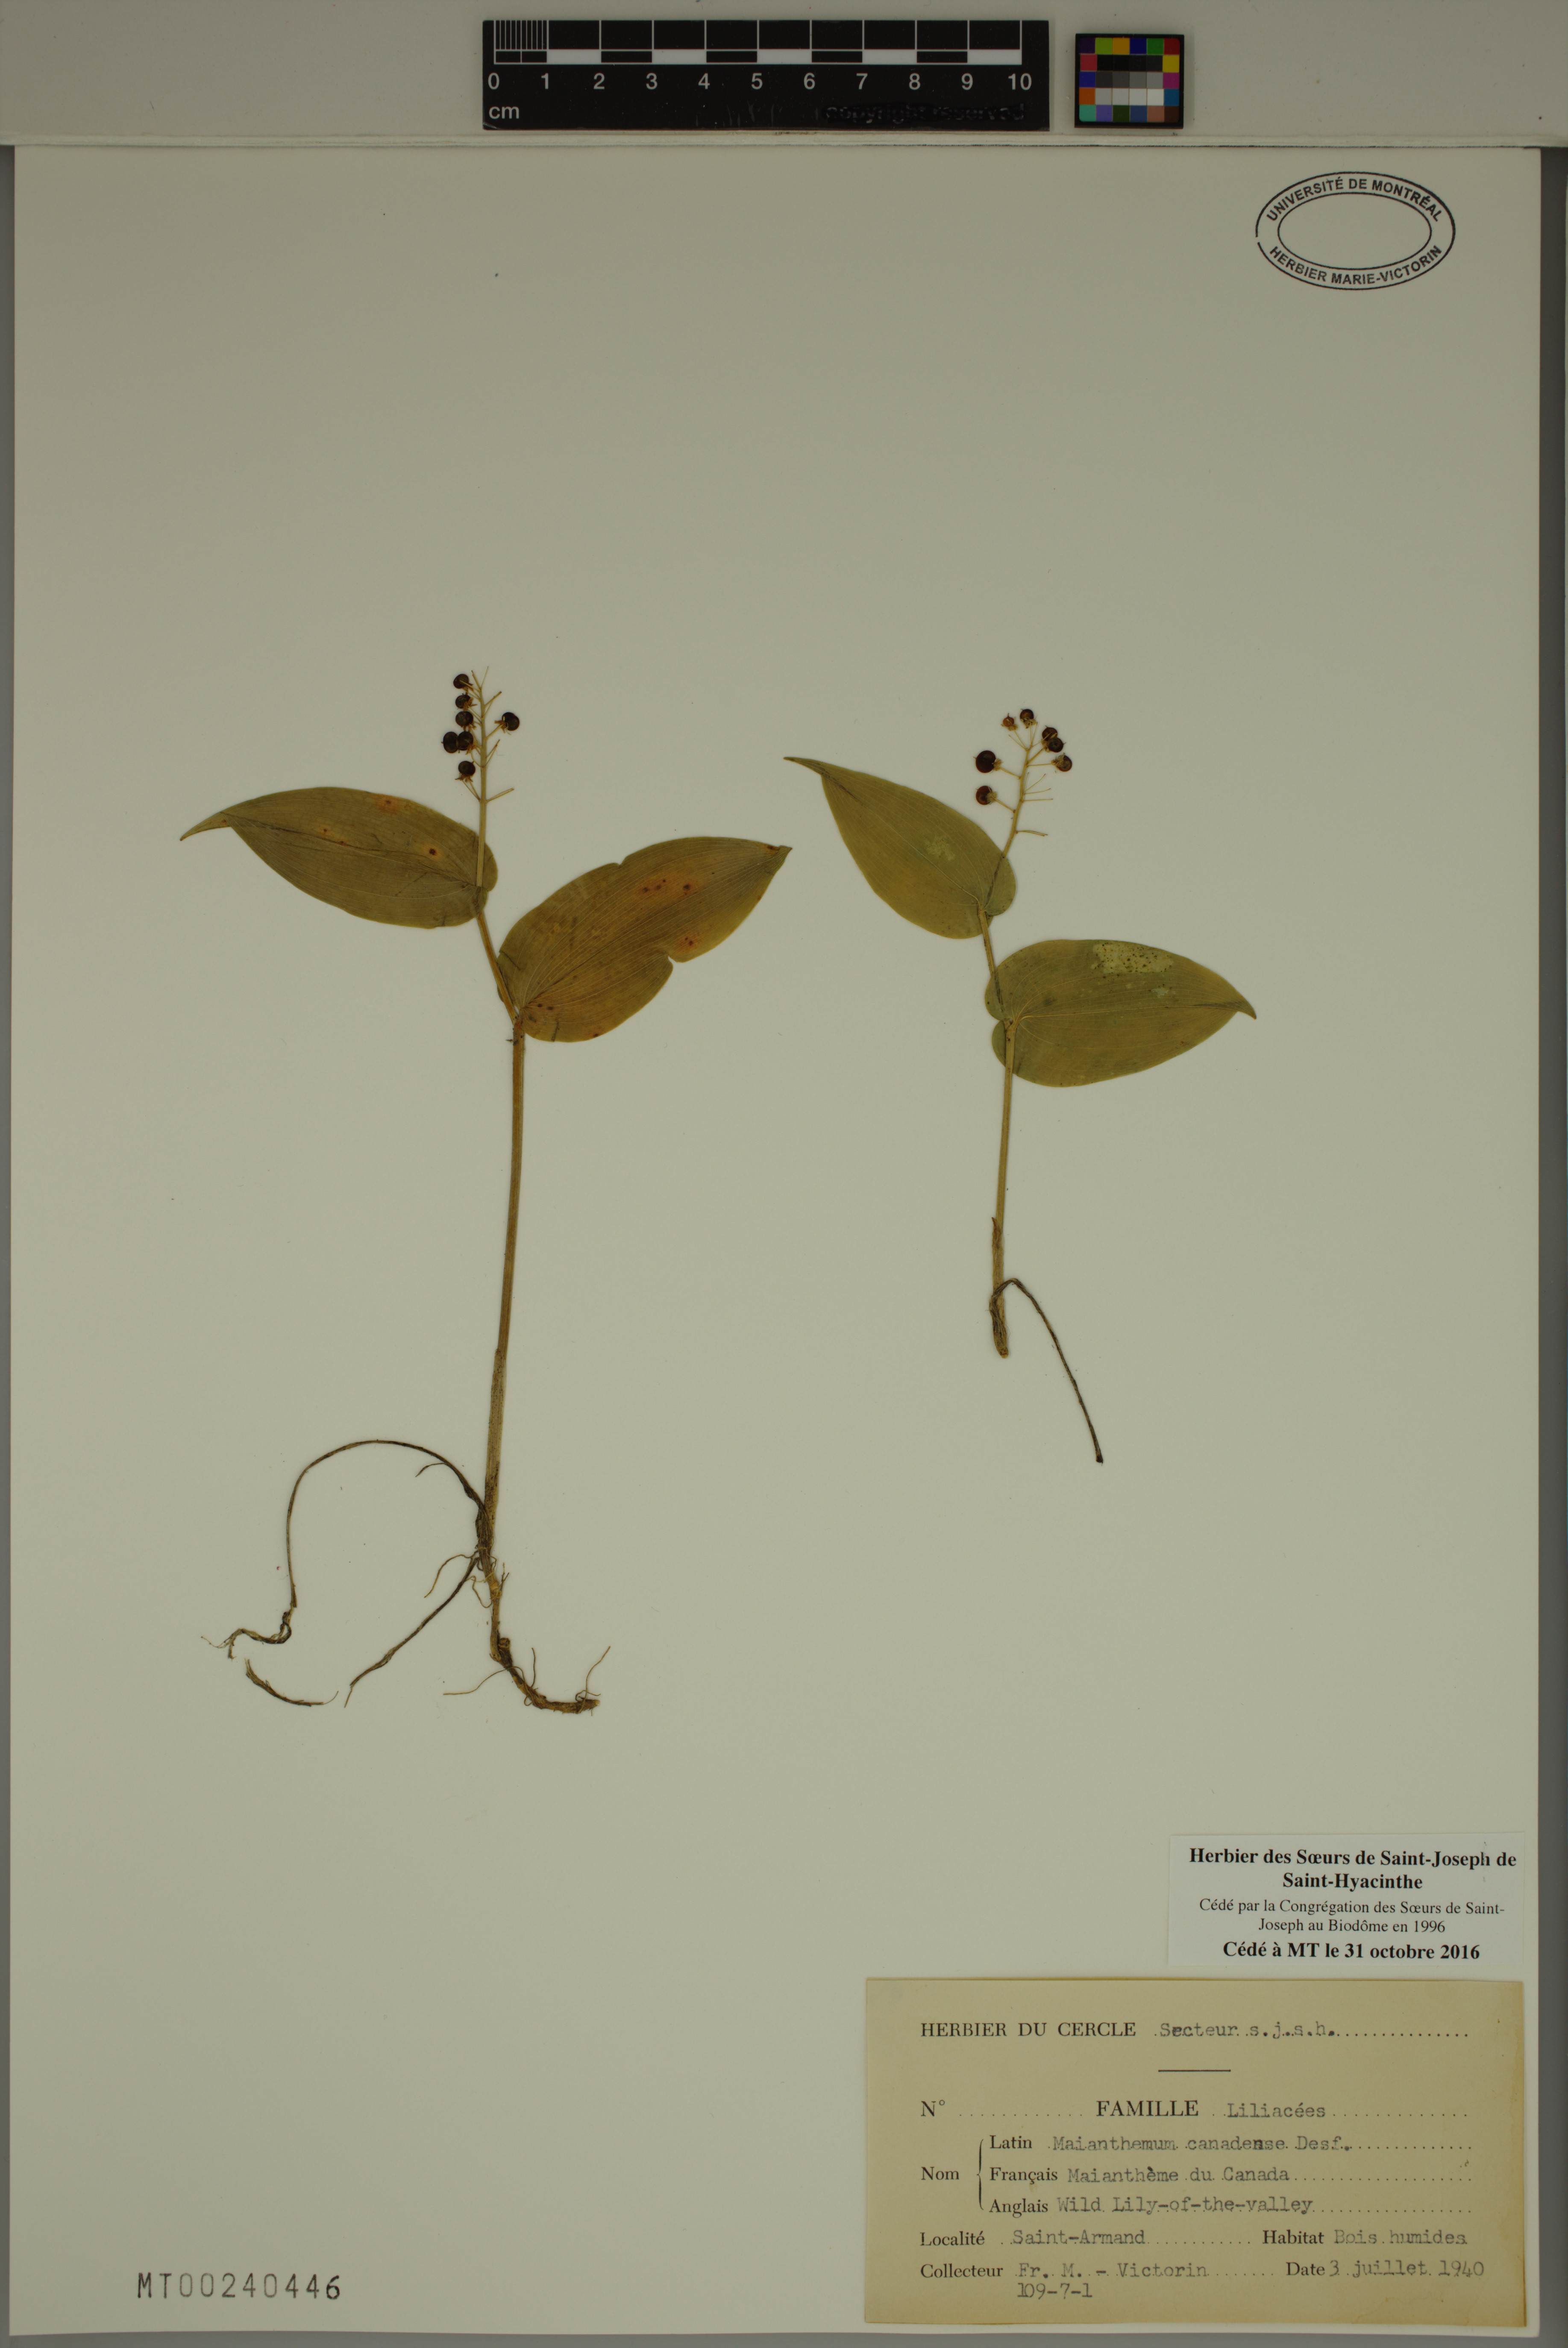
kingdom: Plantae
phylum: Tracheophyta
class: Liliopsida
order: Asparagales
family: Asparagaceae
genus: Maianthemum
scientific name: Maianthemum canadense
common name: False lily-of-the-valley
